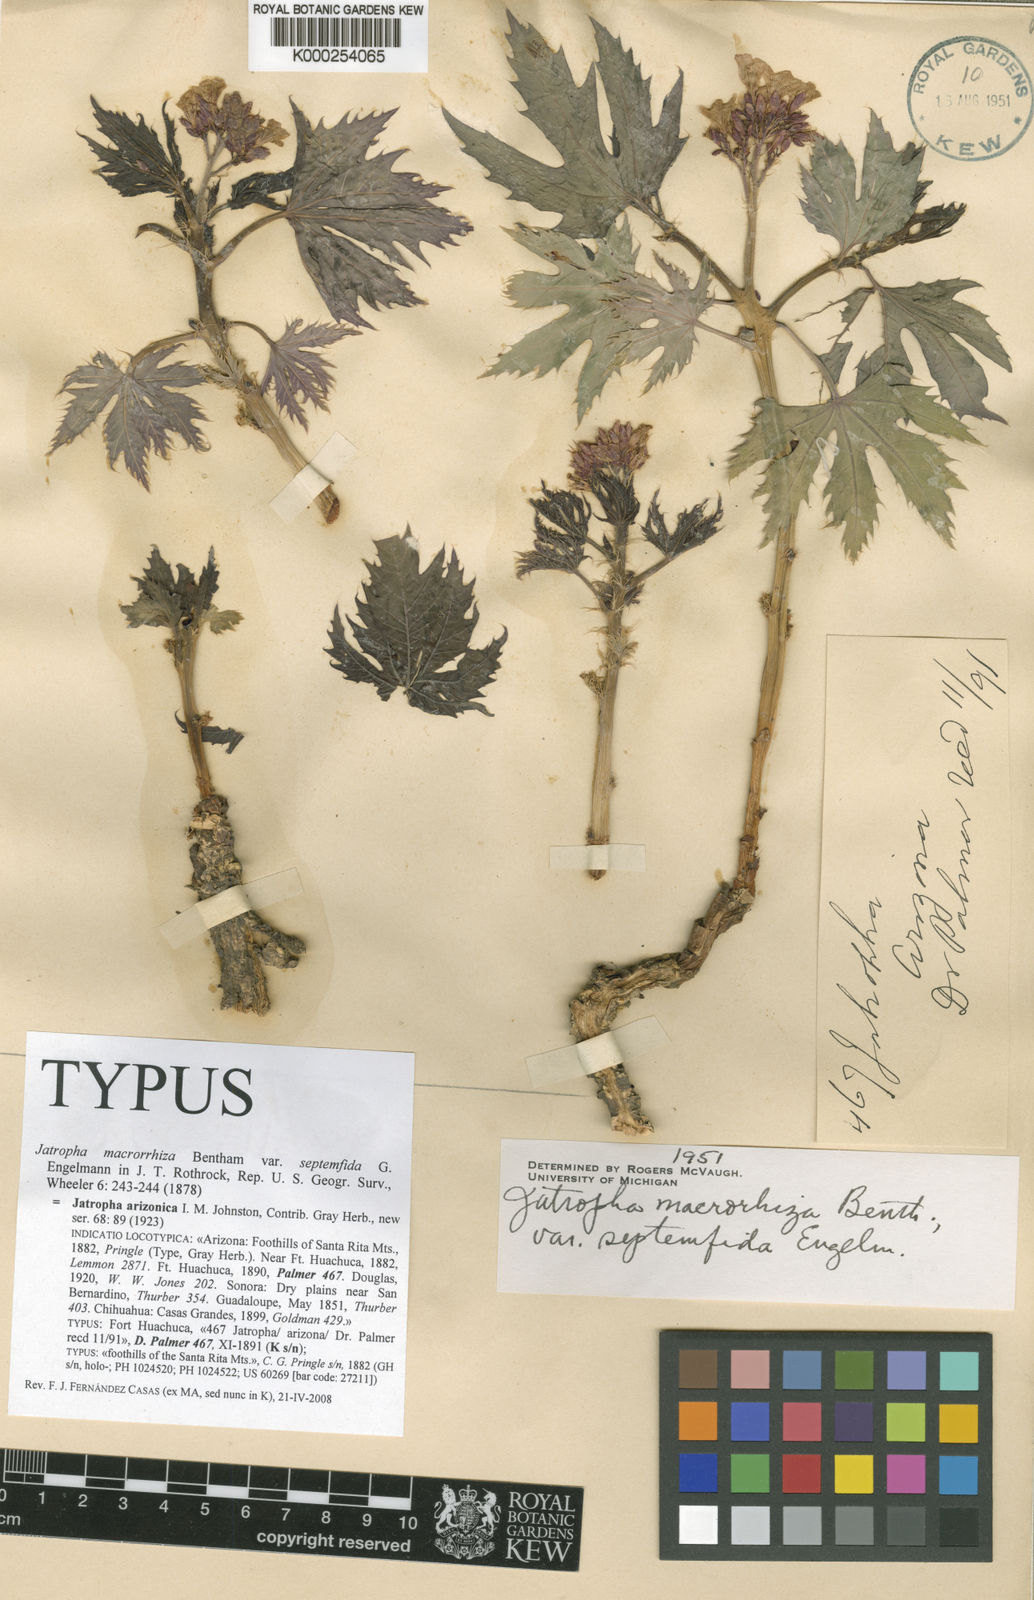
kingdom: Plantae
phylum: Tracheophyta
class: Magnoliopsida
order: Malpighiales
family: Euphorbiaceae
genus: Jatropha
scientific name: Jatropha macrorhiza
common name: Ragged nettlespurge
